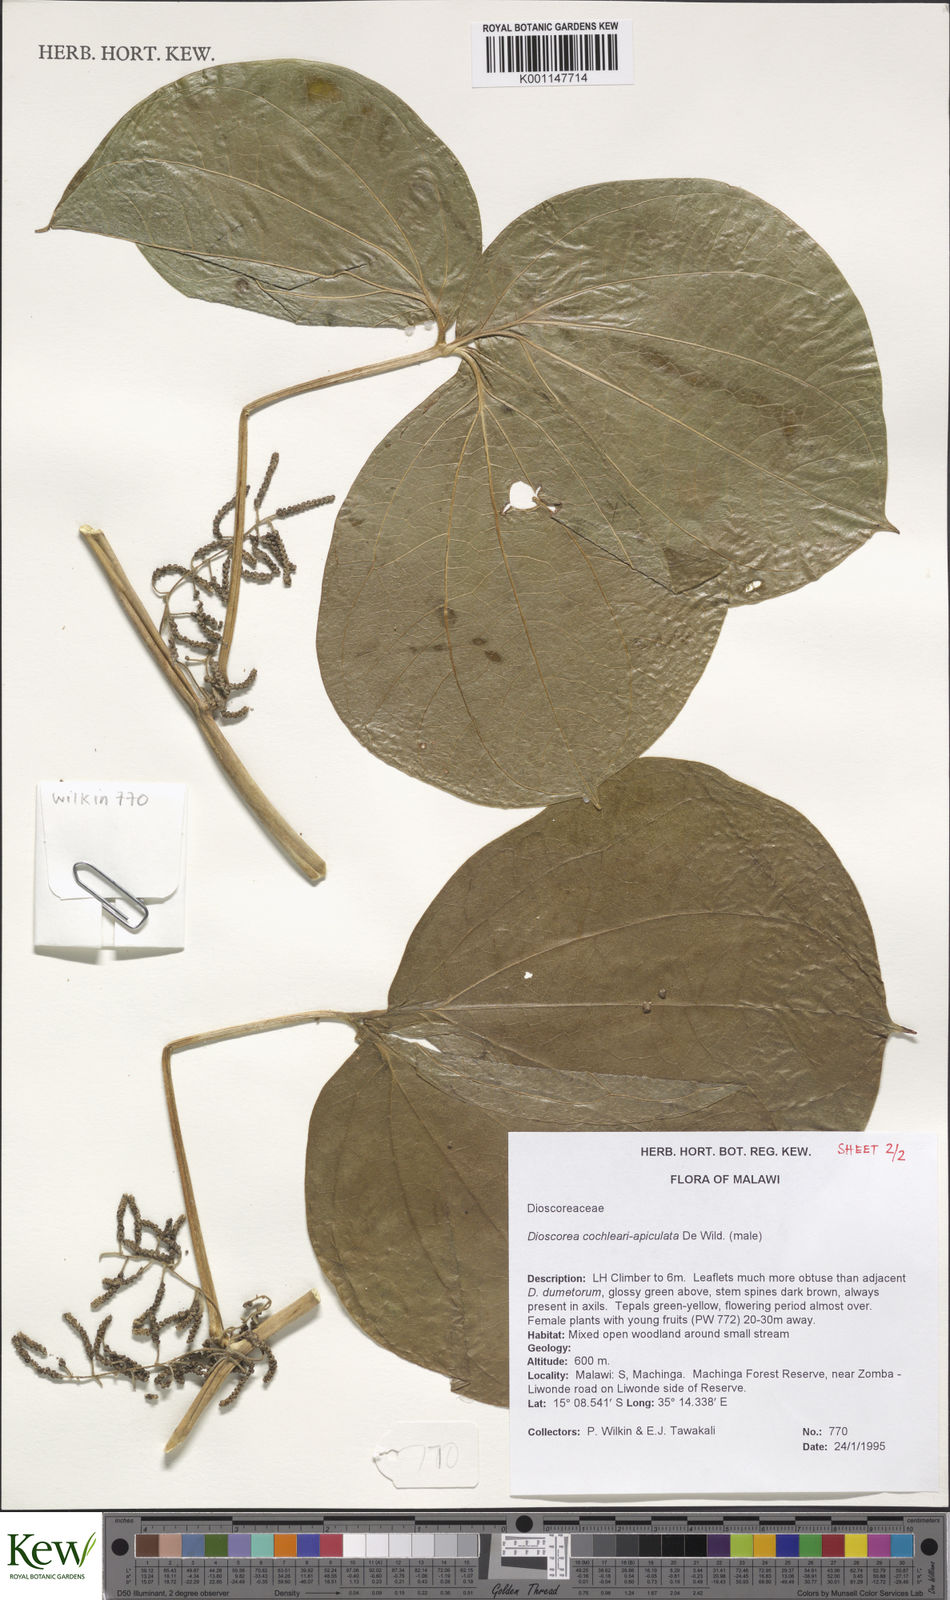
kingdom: Plantae
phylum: Tracheophyta
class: Liliopsida
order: Dioscoreales
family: Dioscoreaceae
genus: Dioscorea
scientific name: Dioscorea cochleariapiculata
